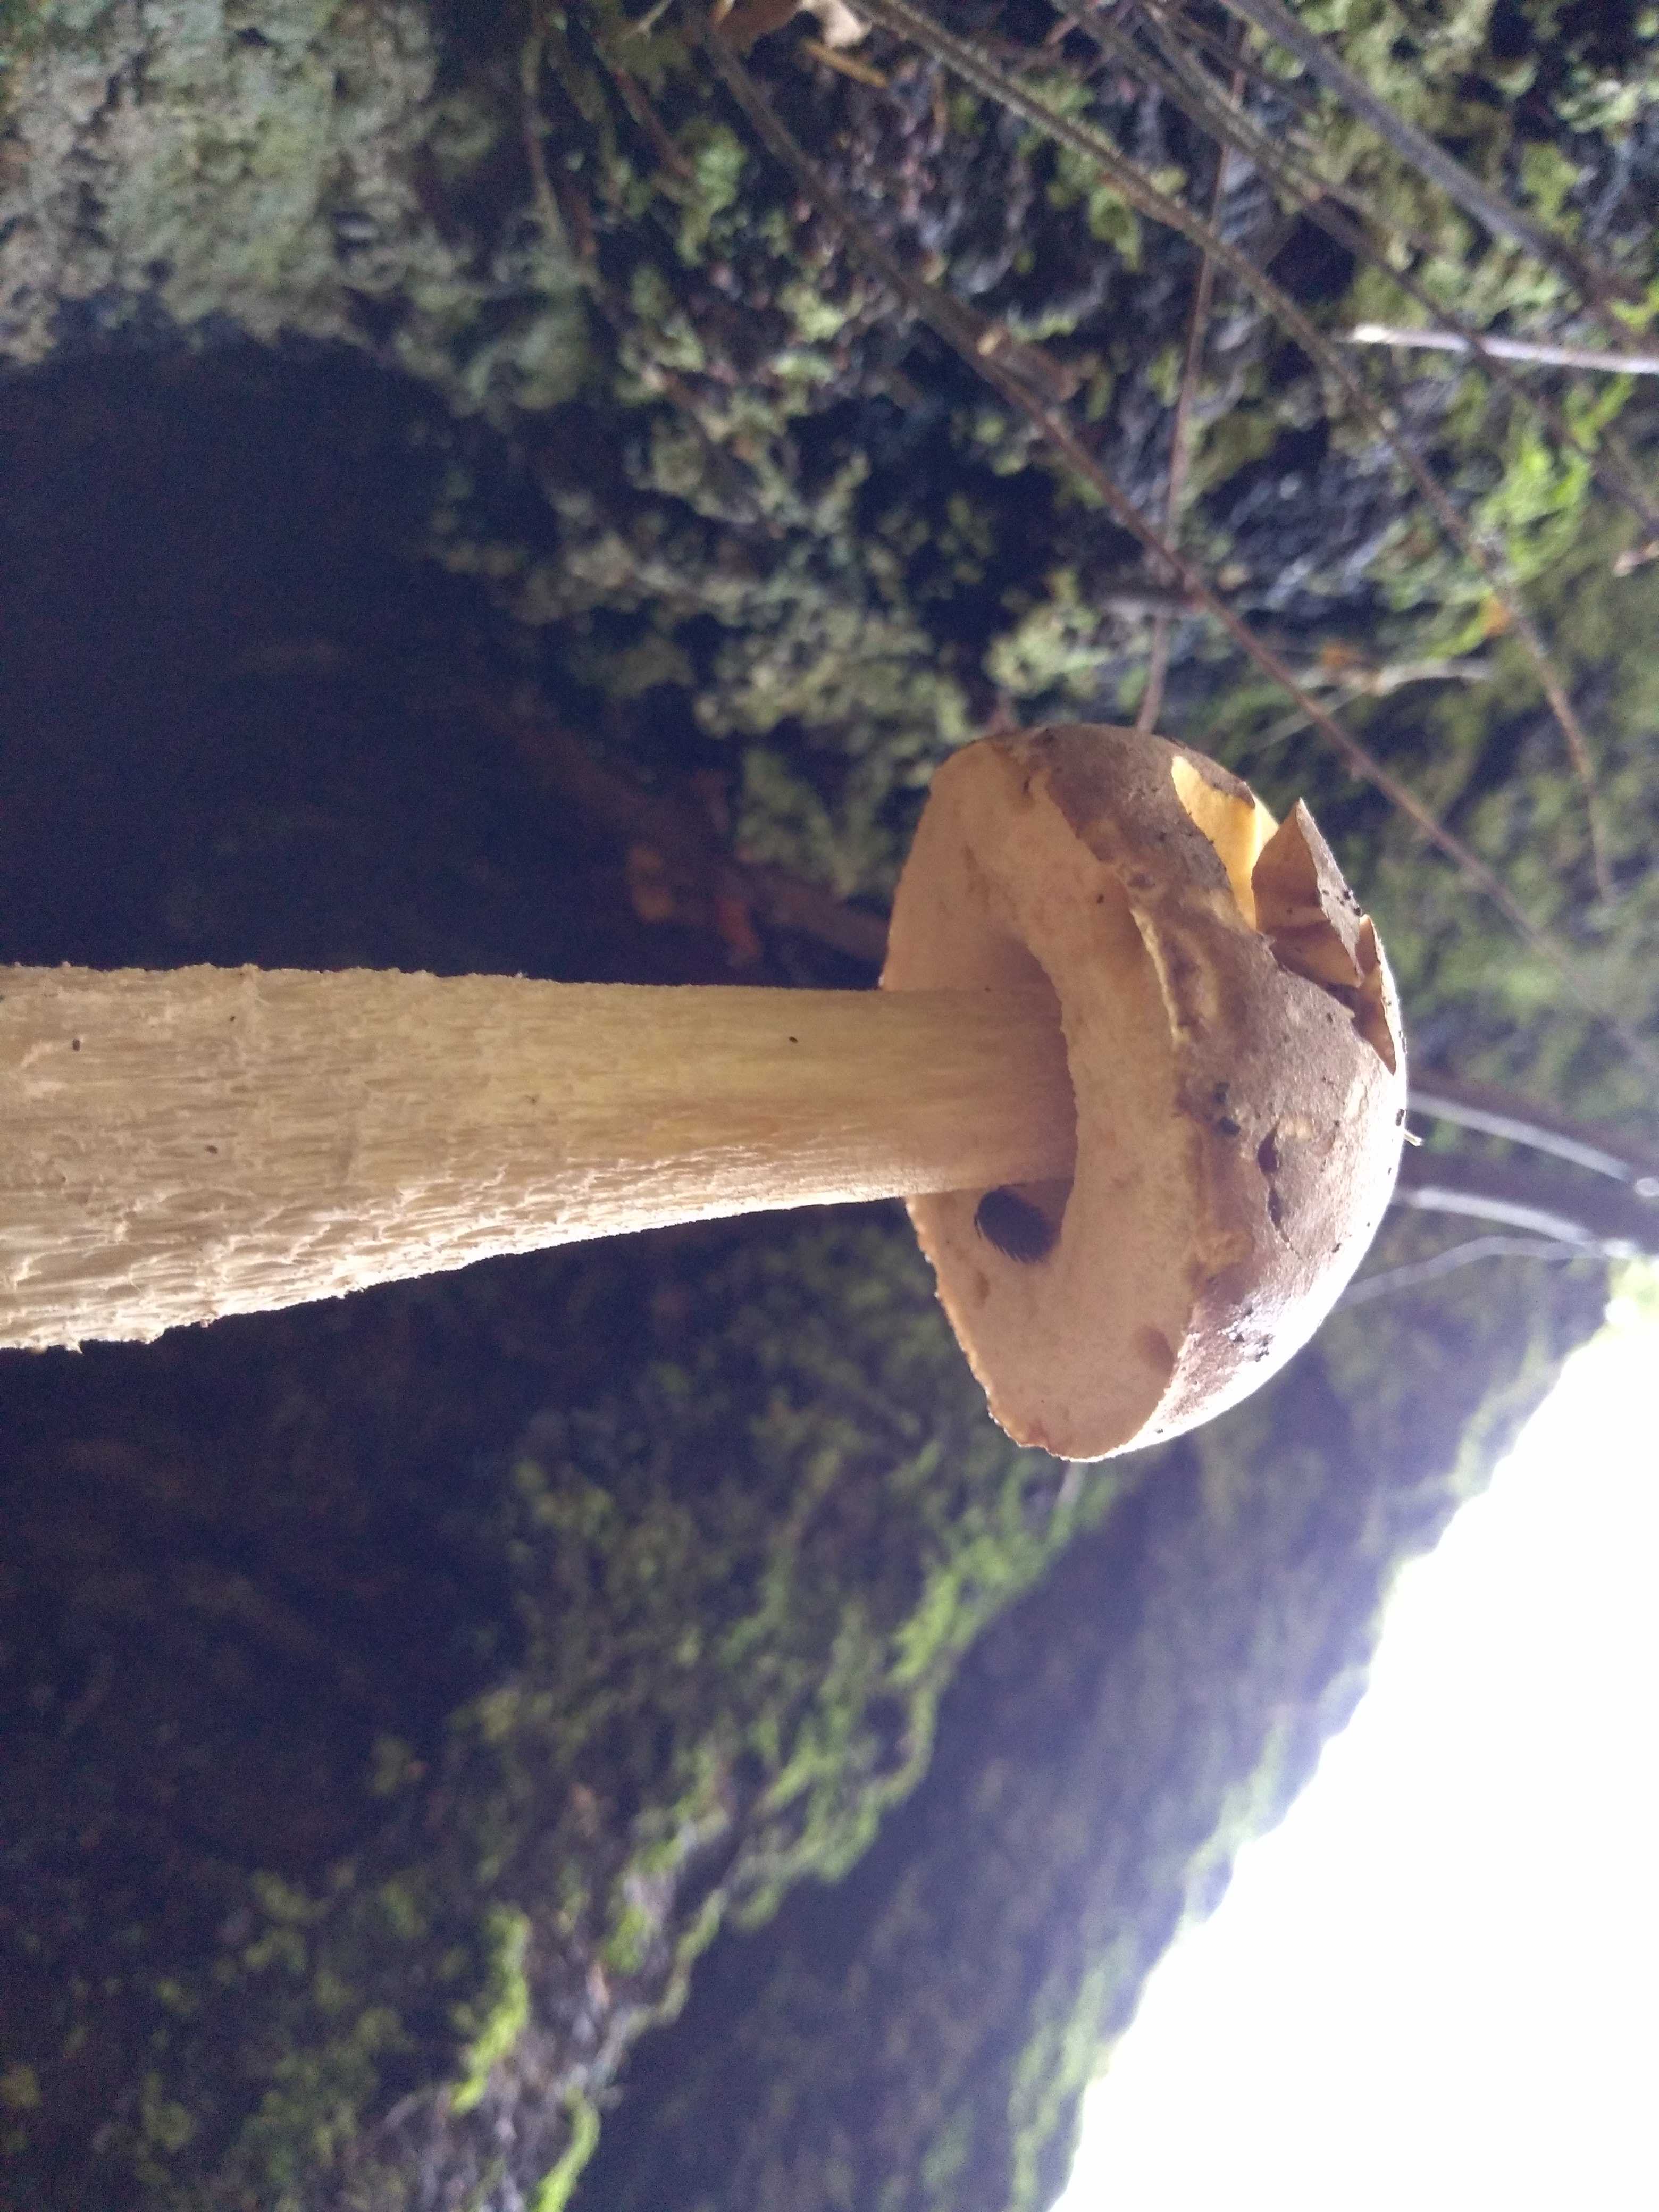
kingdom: Fungi
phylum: Basidiomycota
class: Agaricomycetes
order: Boletales
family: Boletaceae
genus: Leccinum
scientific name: Leccinum
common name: skælrørhat
